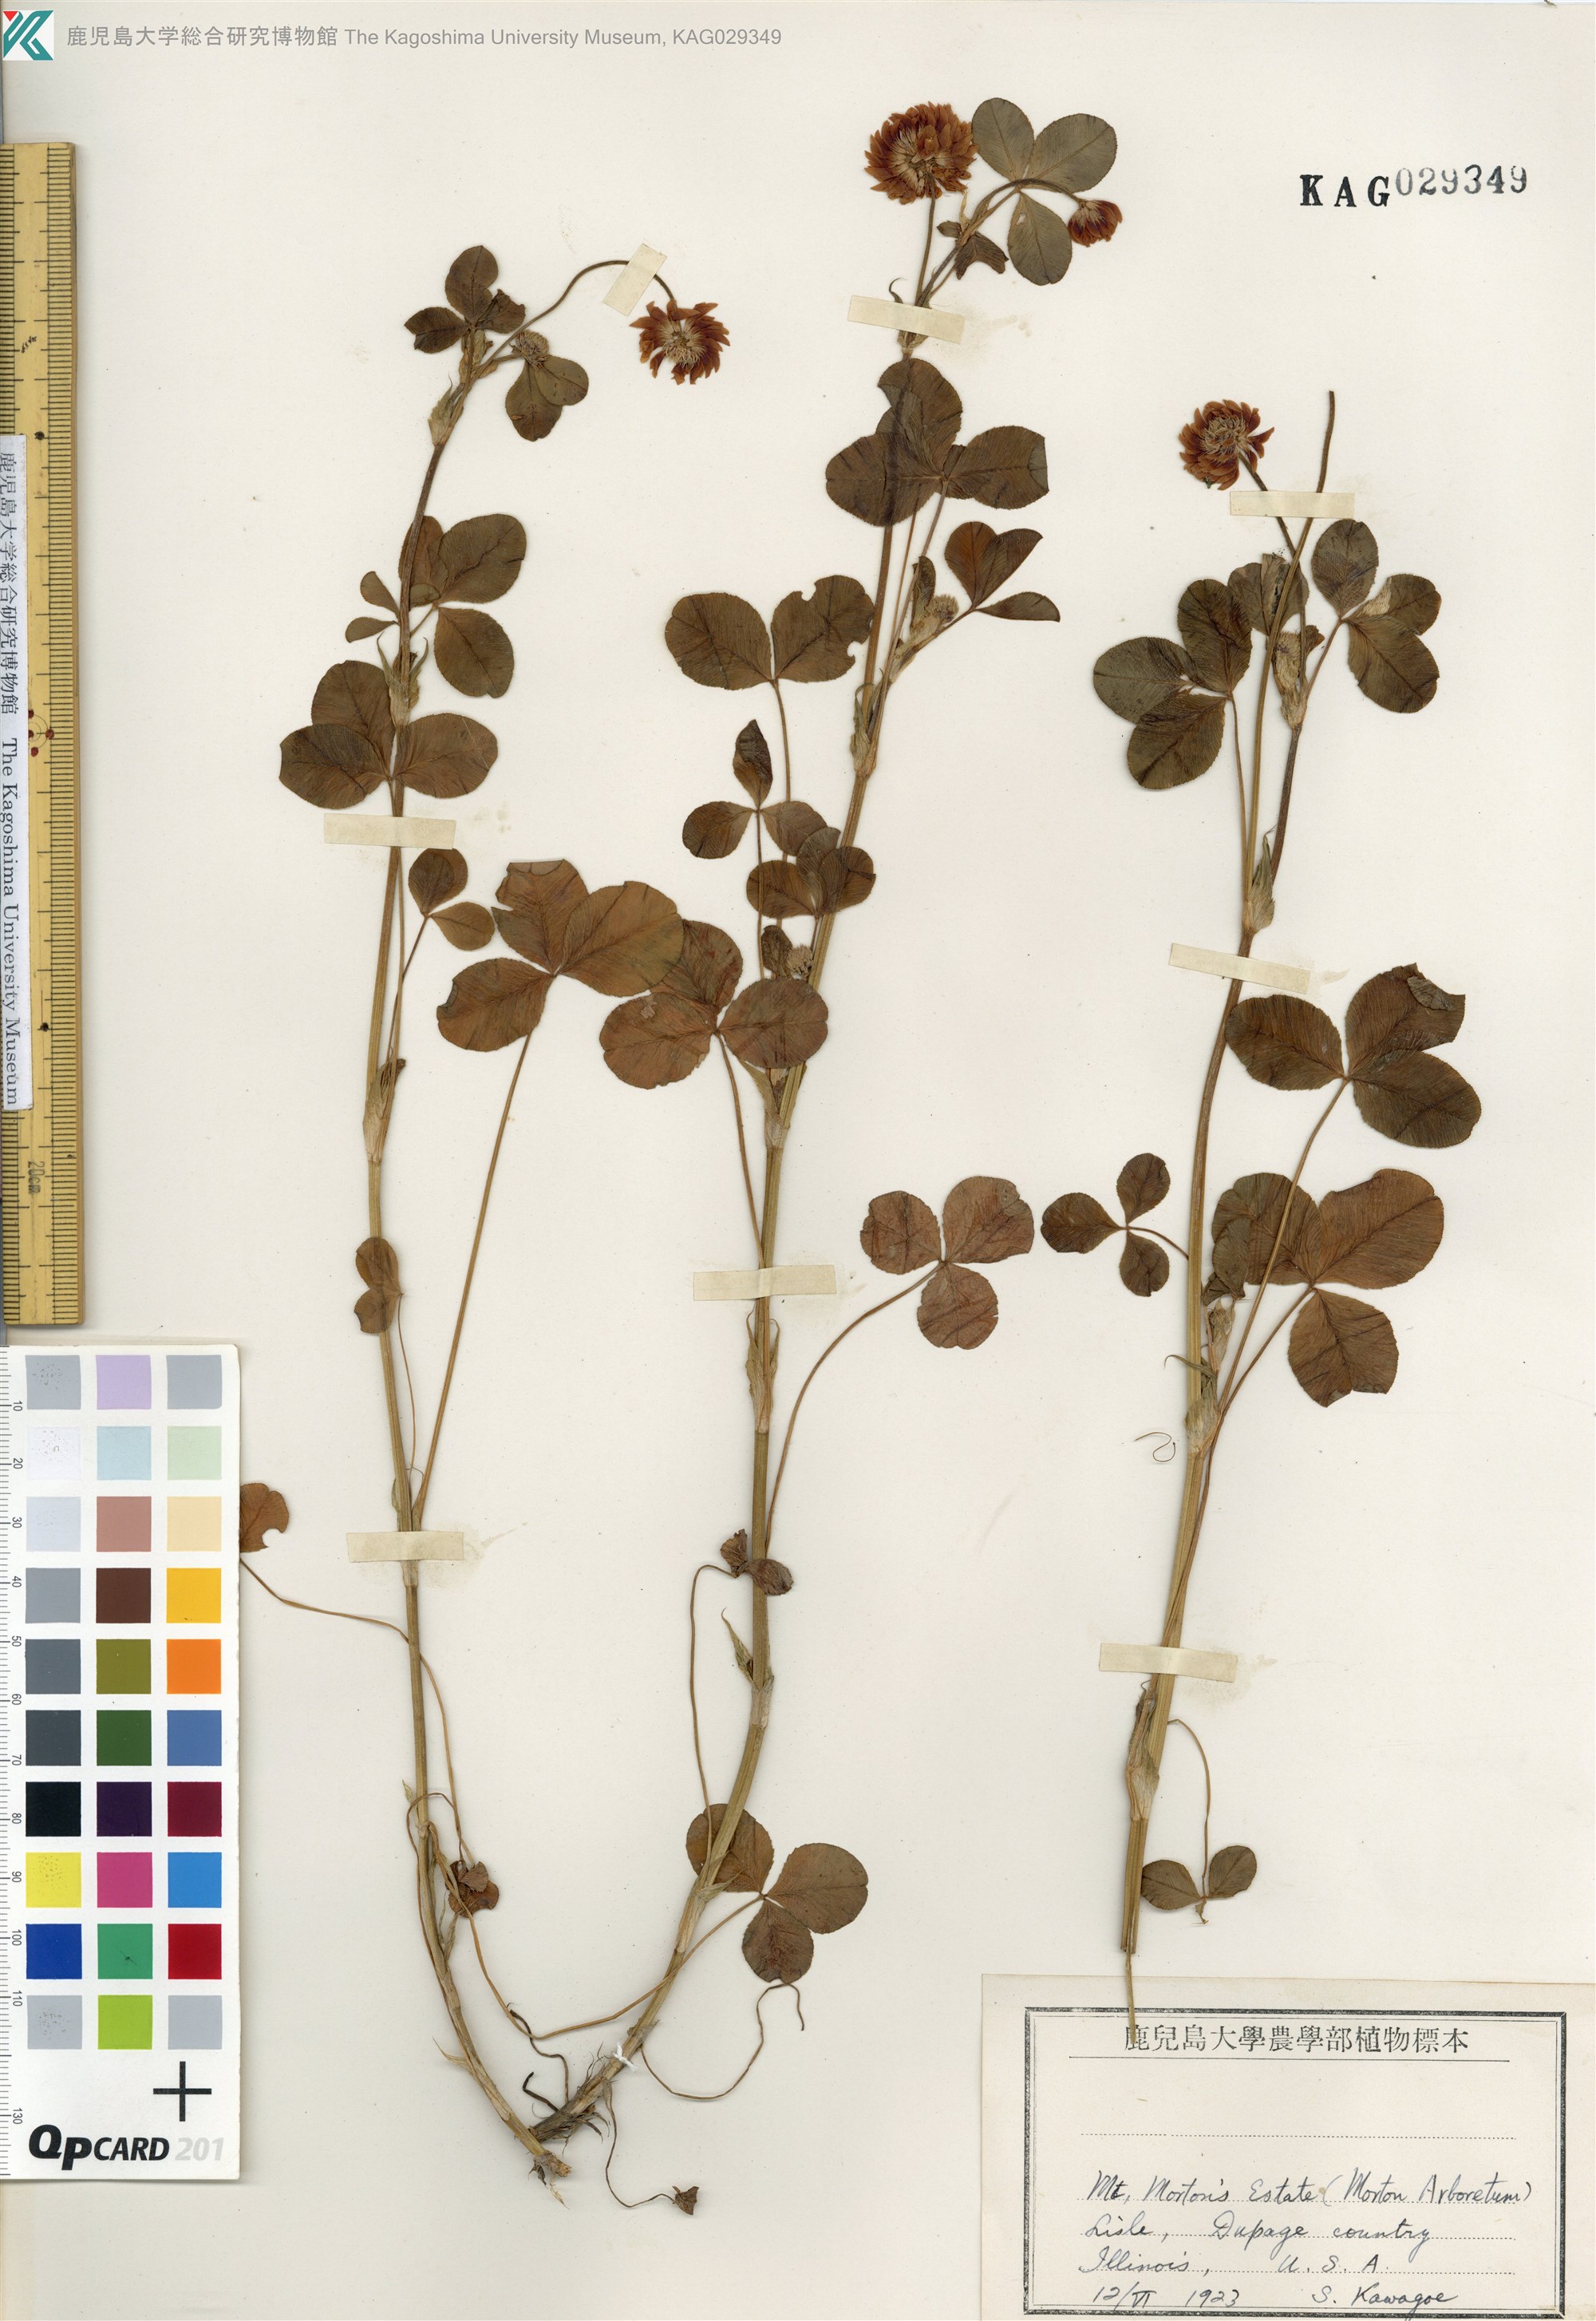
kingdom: Plantae
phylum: Tracheophyta
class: Magnoliopsida
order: Fabales
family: Fabaceae
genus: Trifolium
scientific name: Trifolium hybridum
